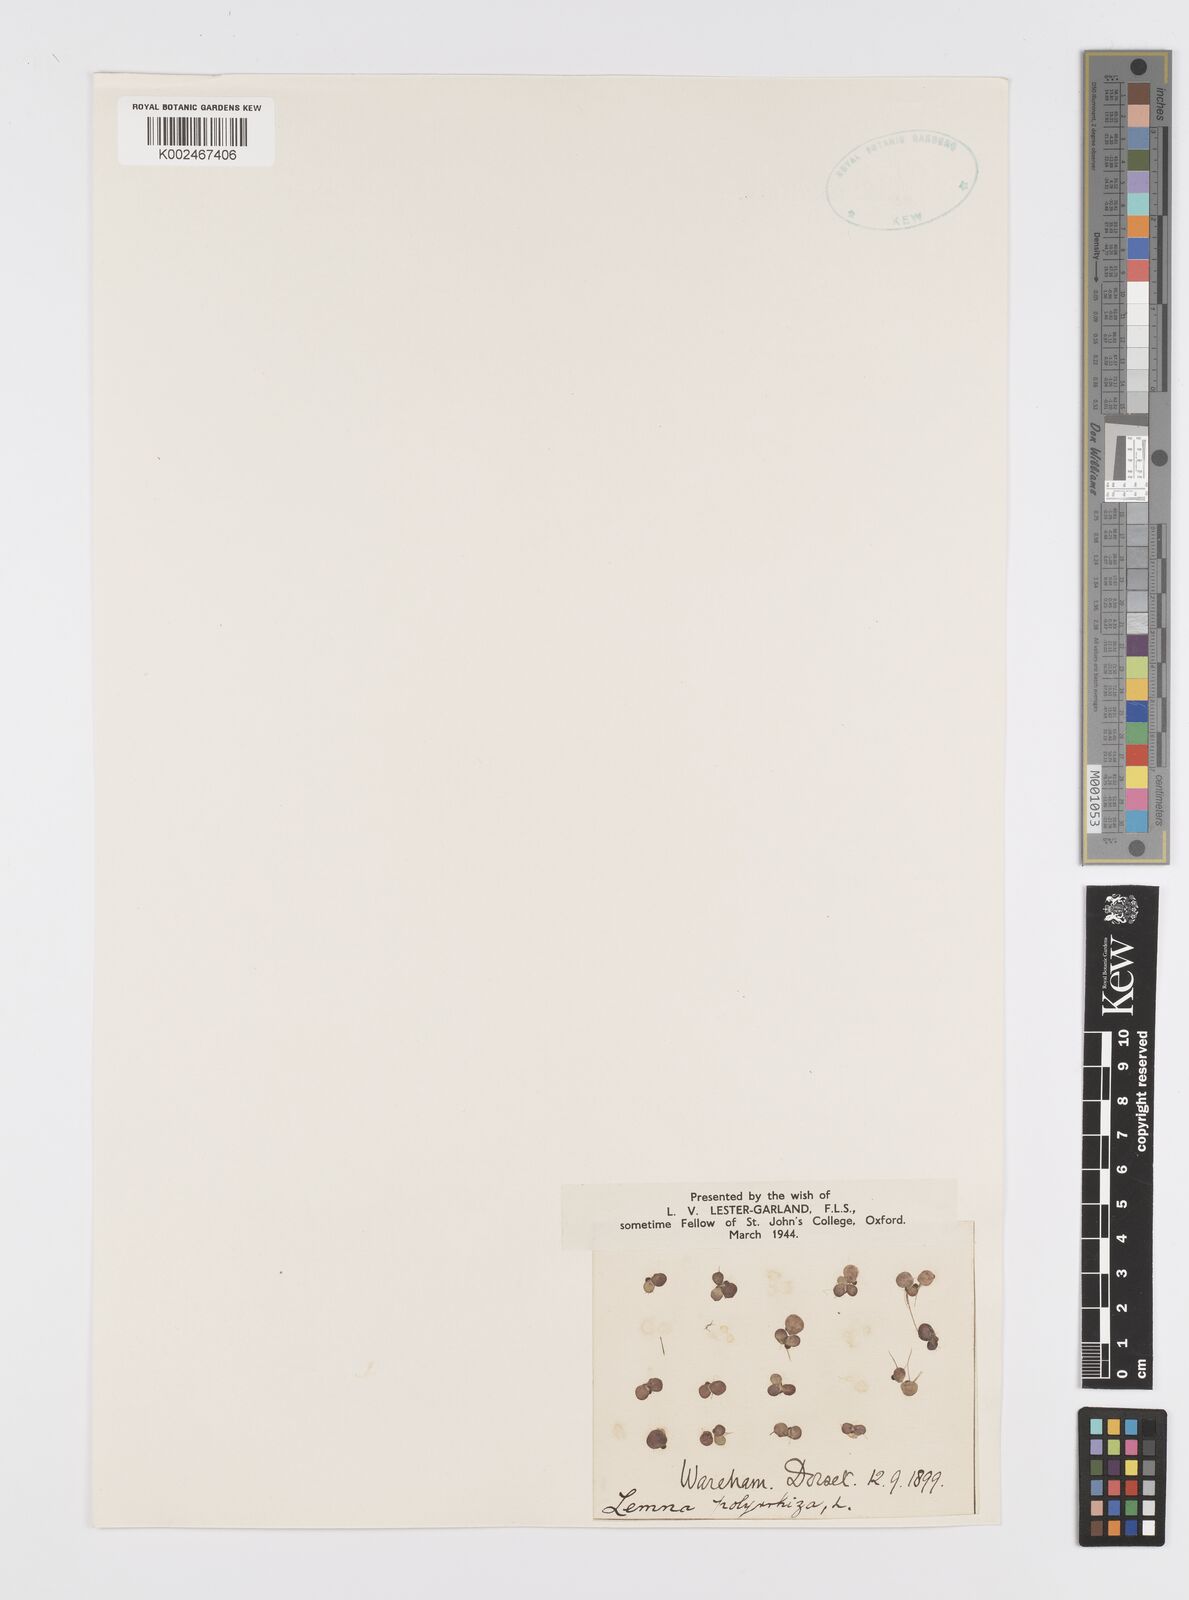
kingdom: Plantae
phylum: Tracheophyta
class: Liliopsida
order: Alismatales
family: Araceae
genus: Spirodela
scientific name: Spirodela polyrhiza
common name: Great duckweed
